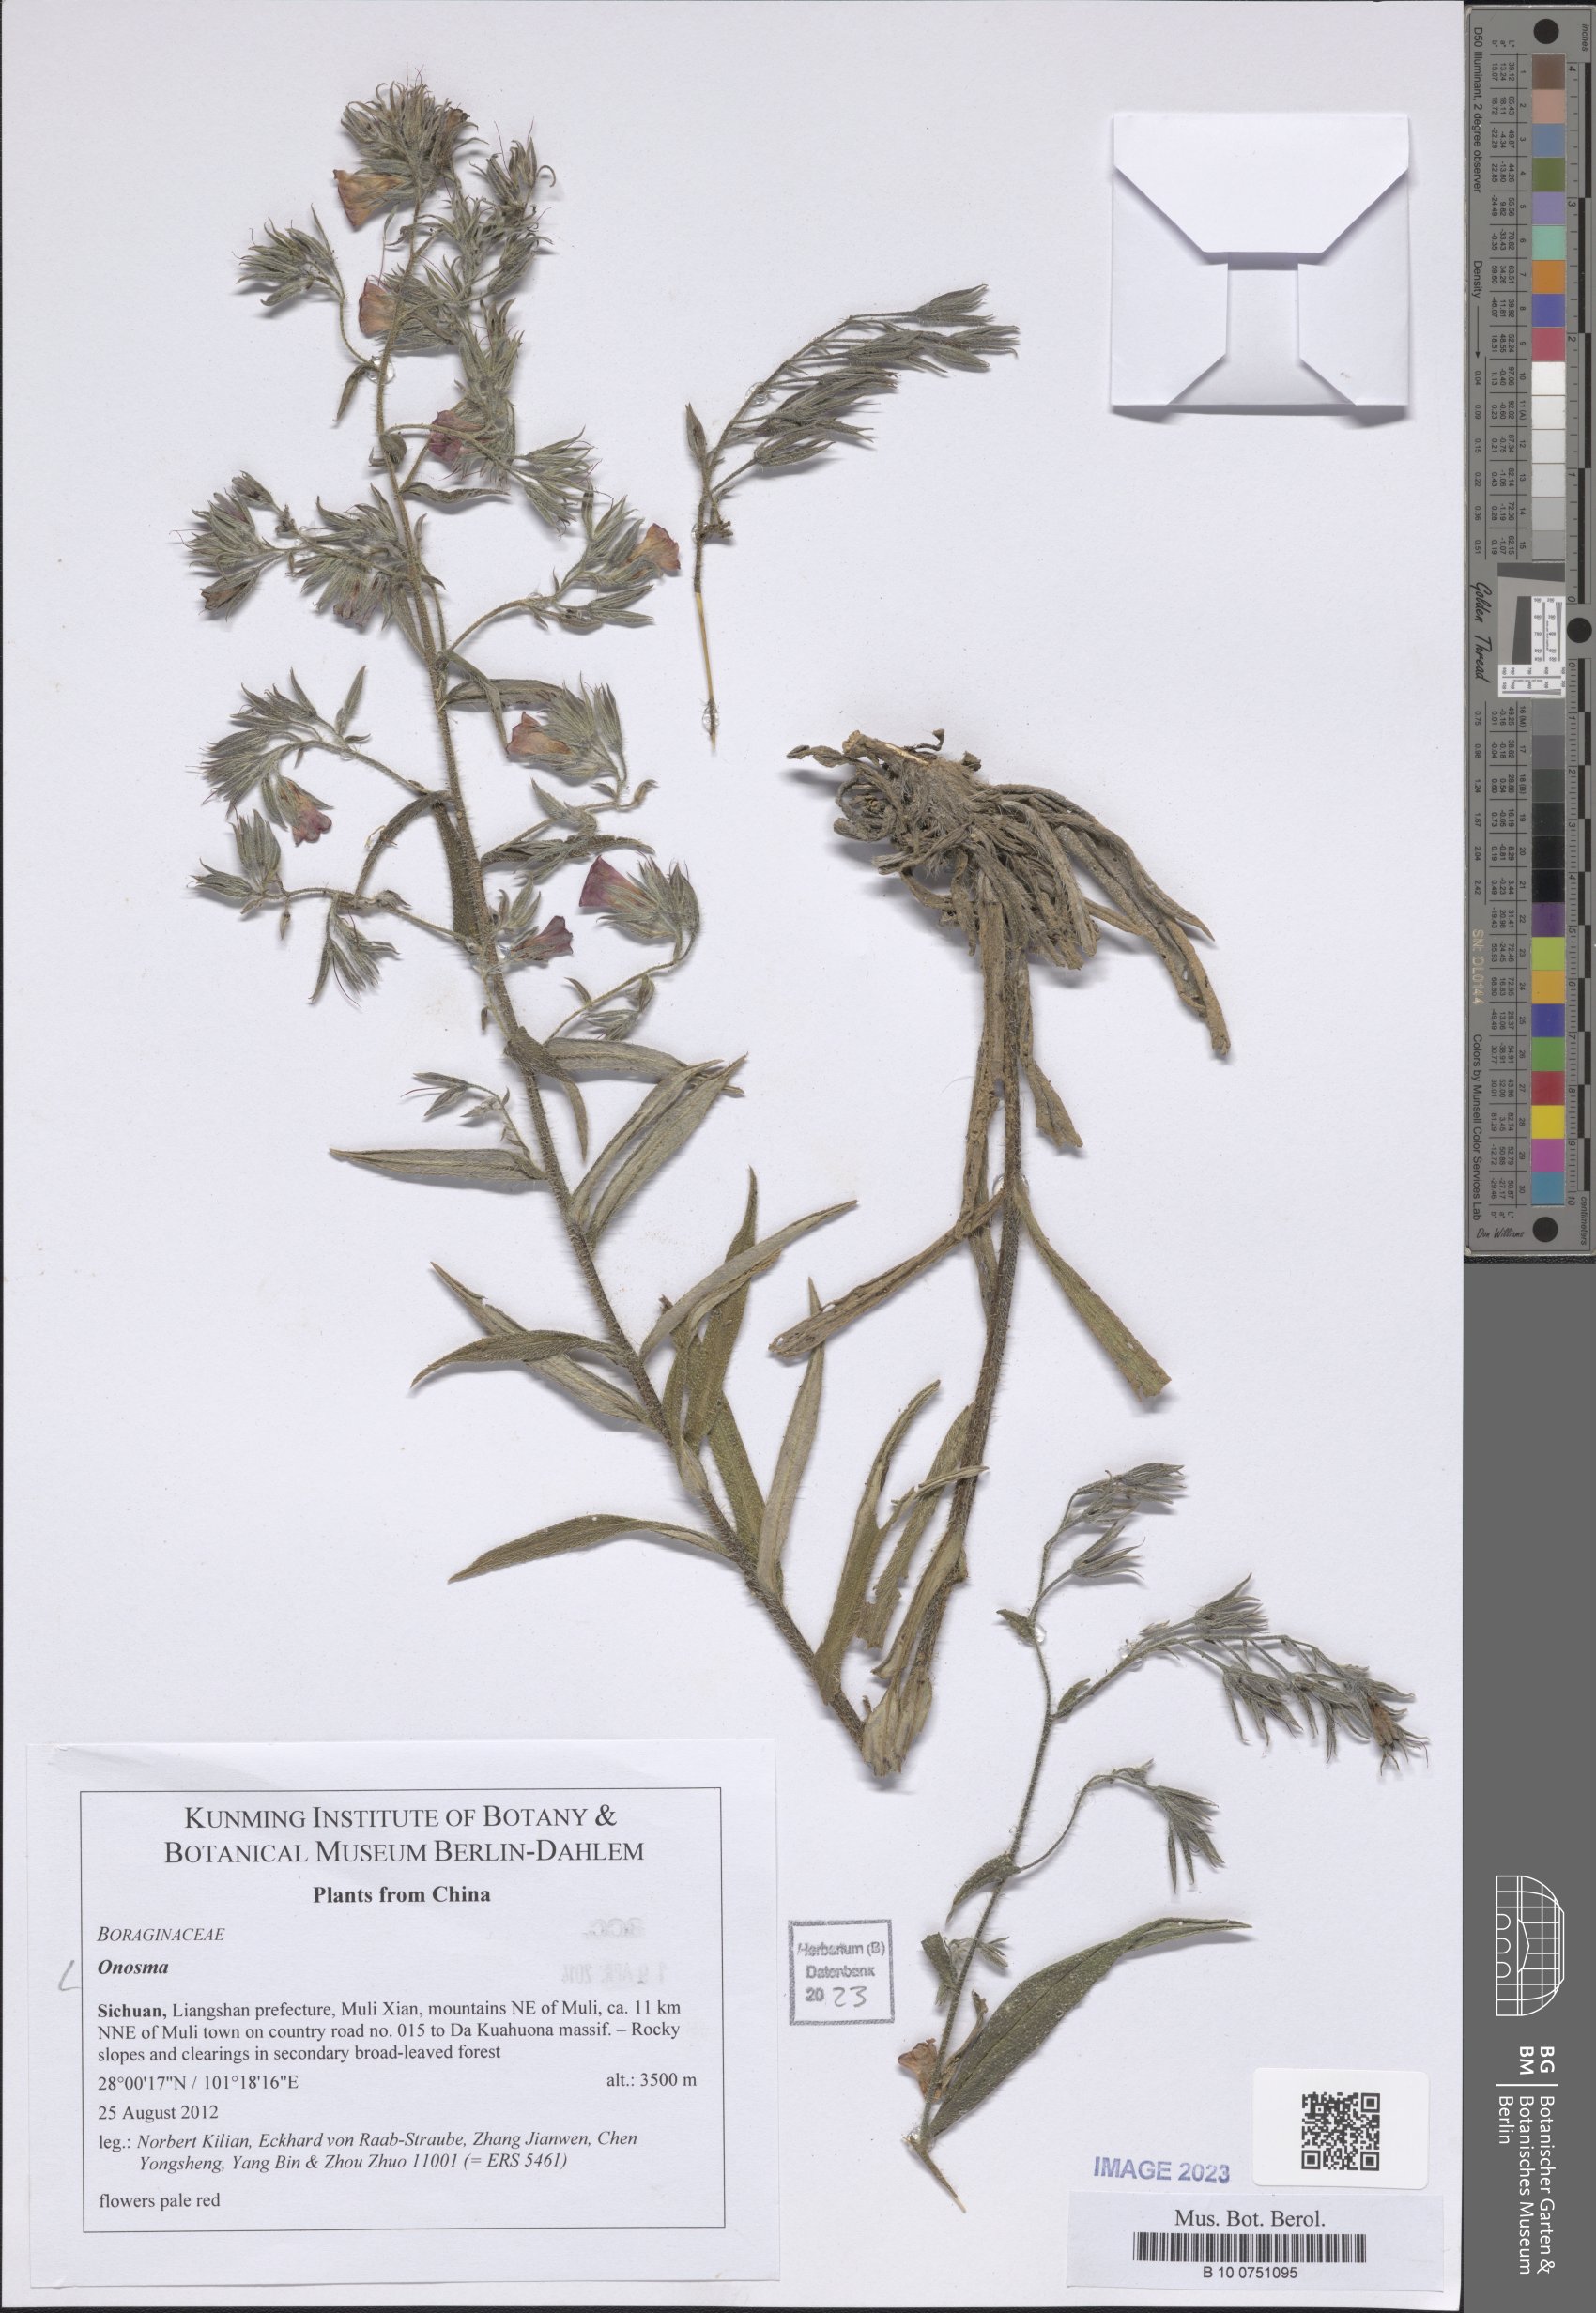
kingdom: Plantae
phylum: Tracheophyta
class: Magnoliopsida
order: Boraginales
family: Boraginaceae
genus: Onosma
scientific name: Onosma
